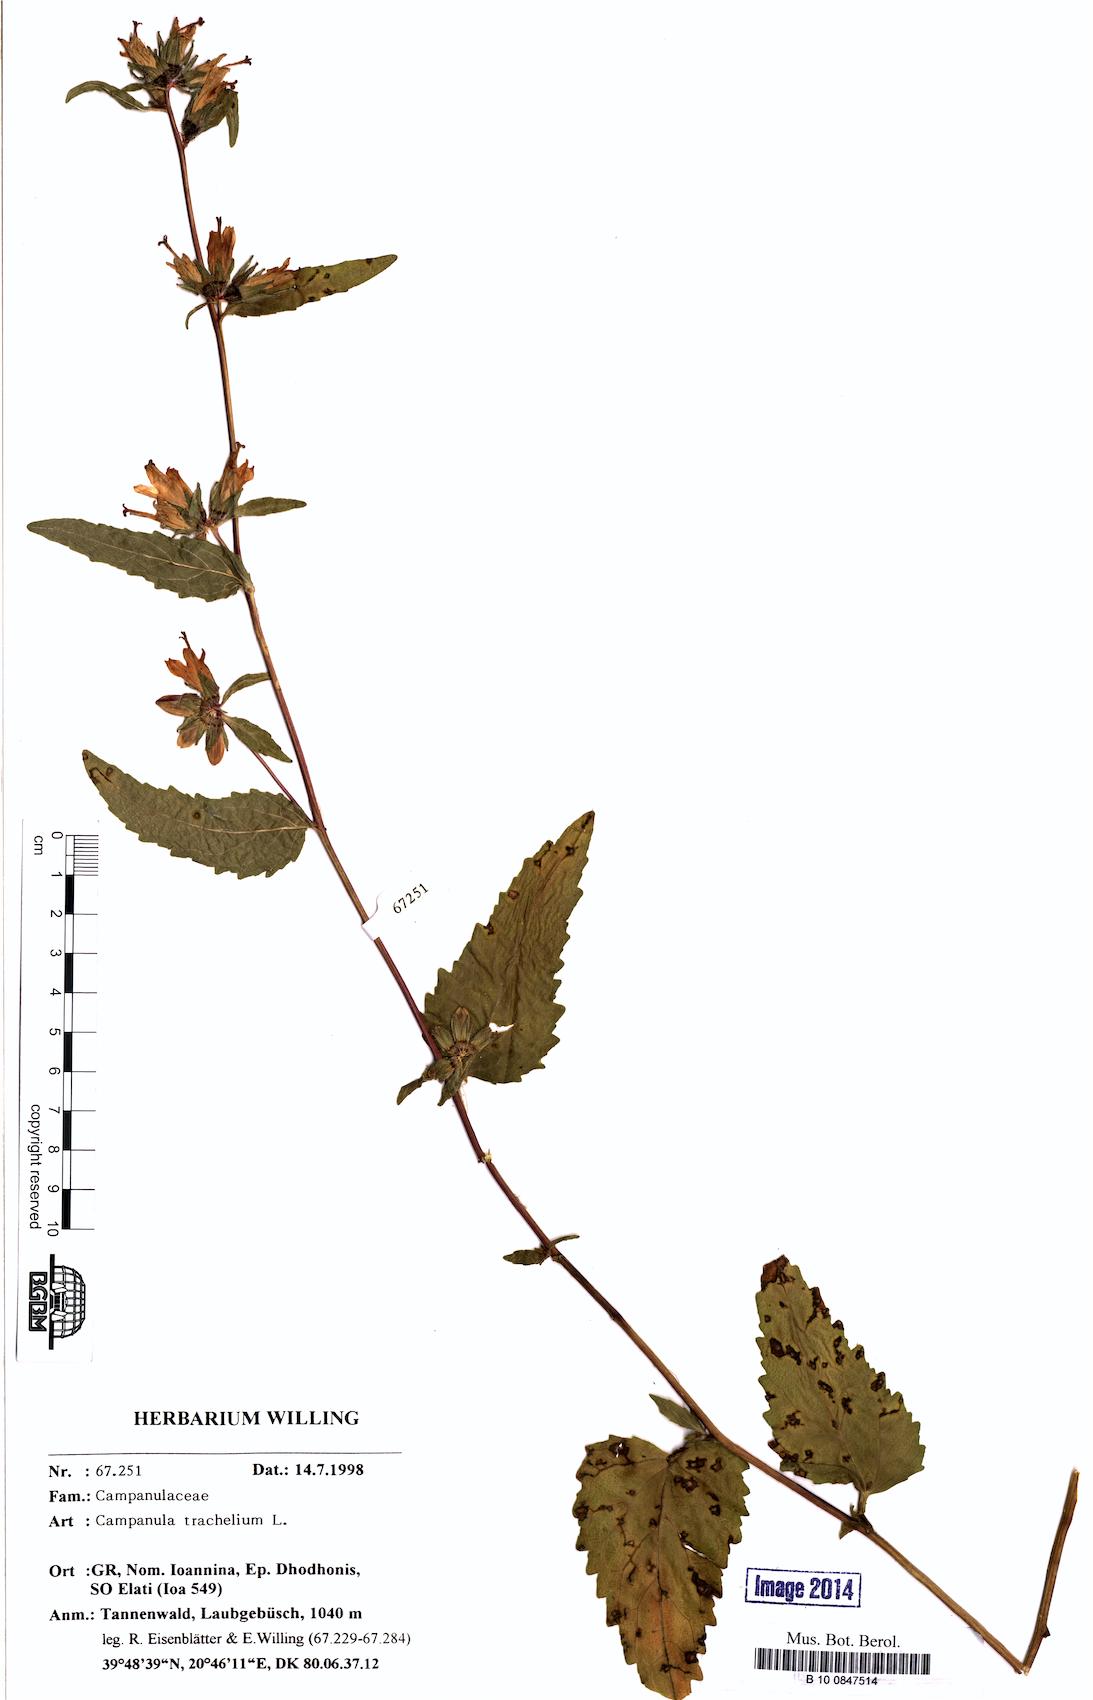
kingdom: Plantae
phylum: Tracheophyta
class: Magnoliopsida
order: Asterales
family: Campanulaceae
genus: Campanula
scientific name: Campanula trachelium
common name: Nettle-leaved bellflower
